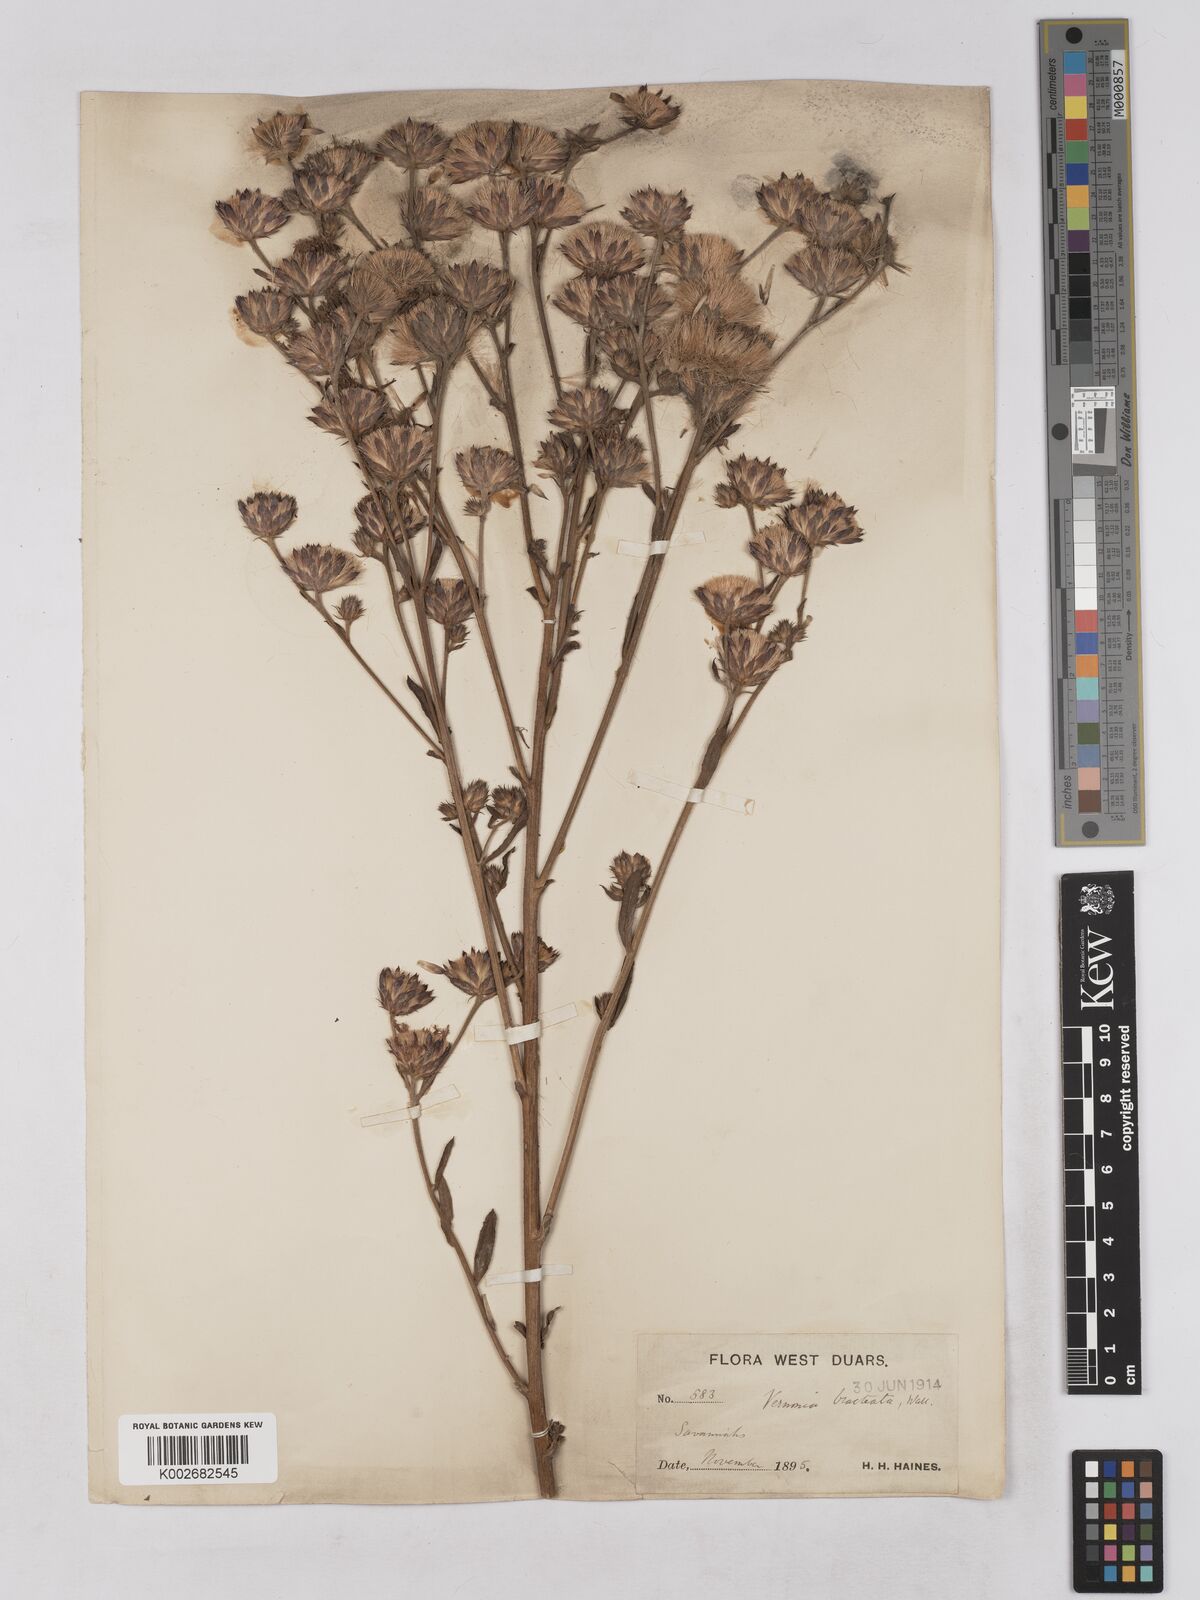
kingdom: Plantae
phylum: Tracheophyta
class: Magnoliopsida
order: Asterales
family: Asteraceae
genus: Acilepis
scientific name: Acilepis silhetensis
